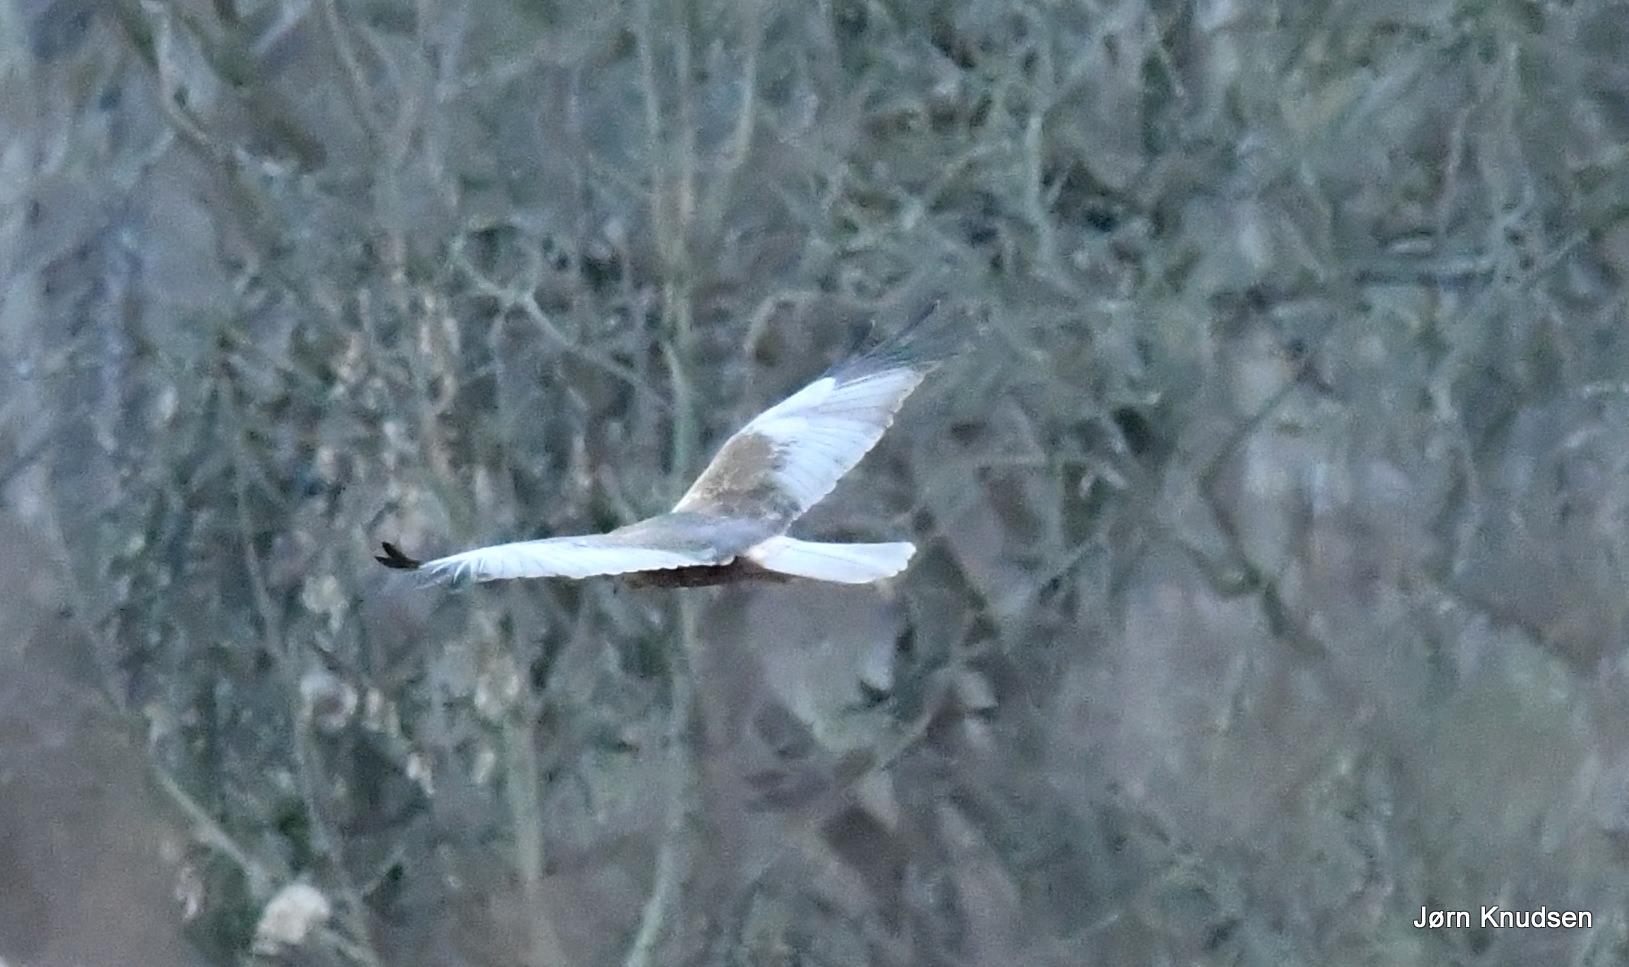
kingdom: Animalia
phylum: Chordata
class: Aves
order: Accipitriformes
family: Accipitridae
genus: Circus
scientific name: Circus aeruginosus
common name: Rørhøg
